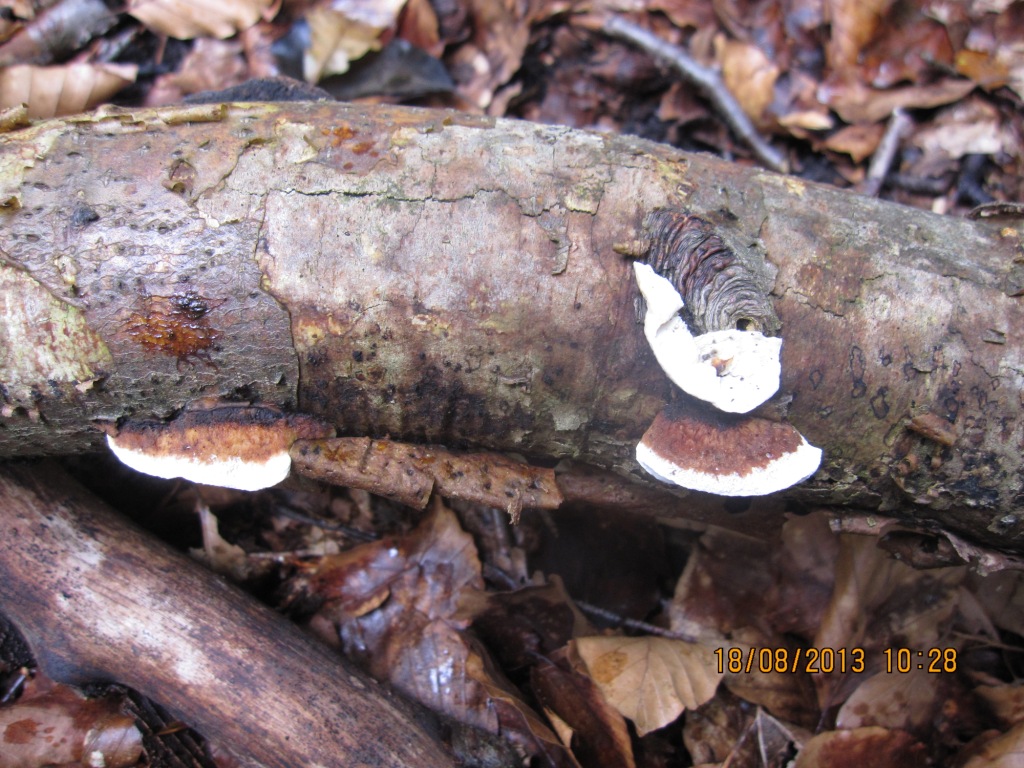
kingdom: Fungi
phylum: Basidiomycota
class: Agaricomycetes
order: Polyporales
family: Incrustoporiaceae
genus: Skeletocutis
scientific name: Skeletocutis nemoralis
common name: stor krystalporesvamp
